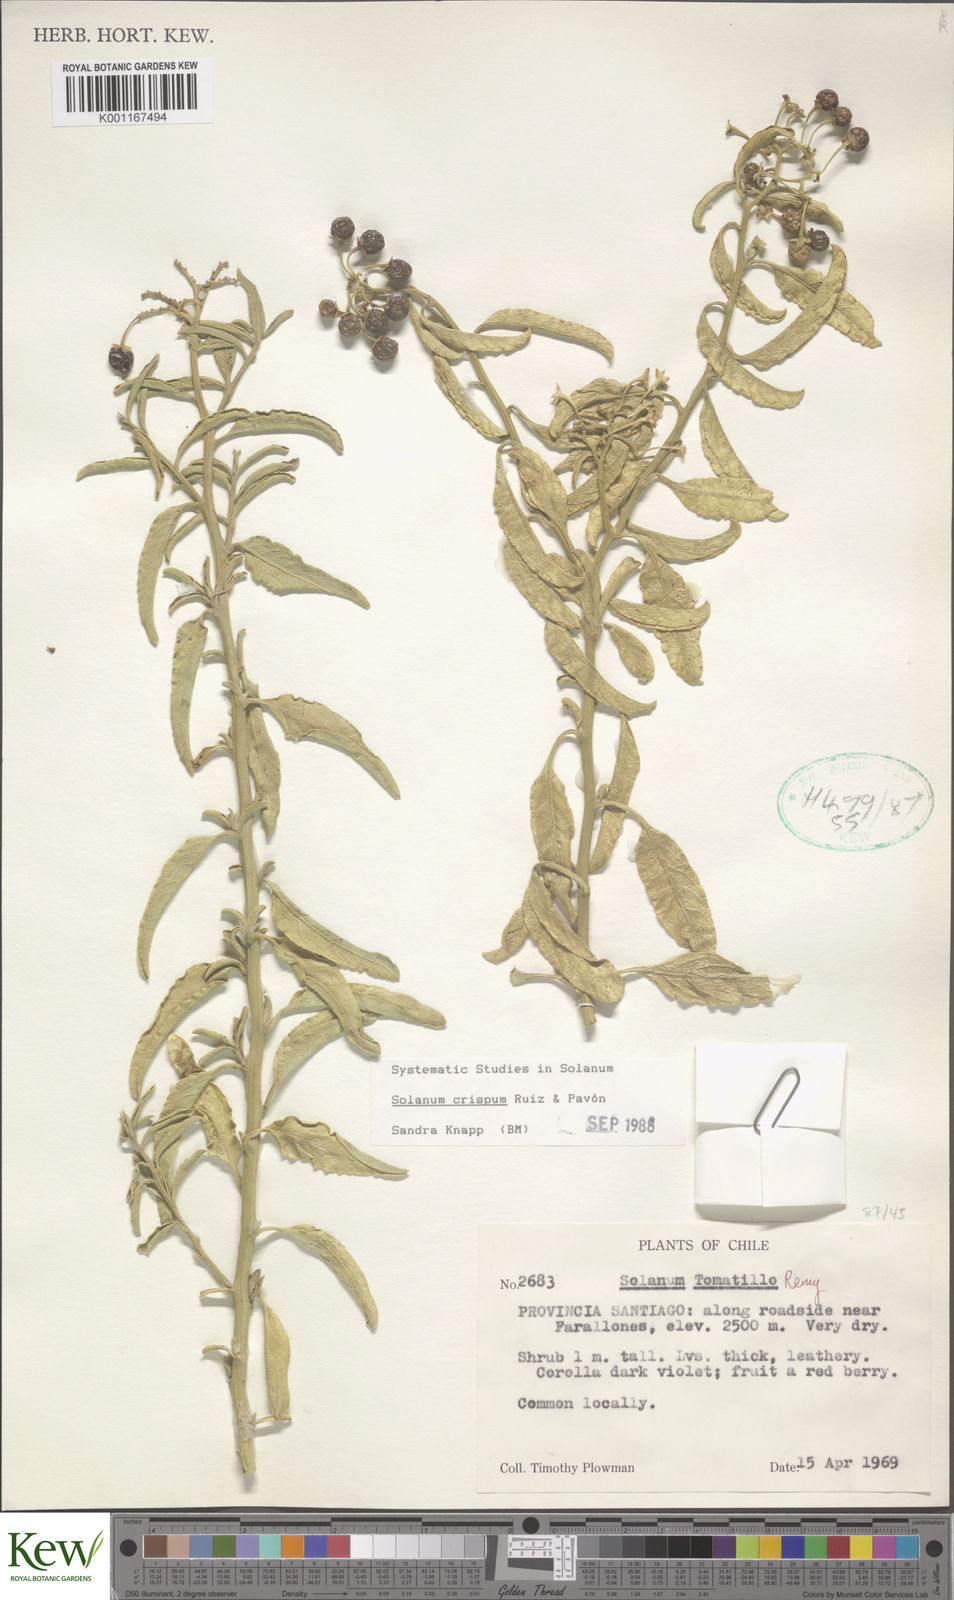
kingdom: Plantae
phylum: Tracheophyta
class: Magnoliopsida
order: Solanales
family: Solanaceae
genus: Solanum
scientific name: Solanum crispum
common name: Chilean nightshade
